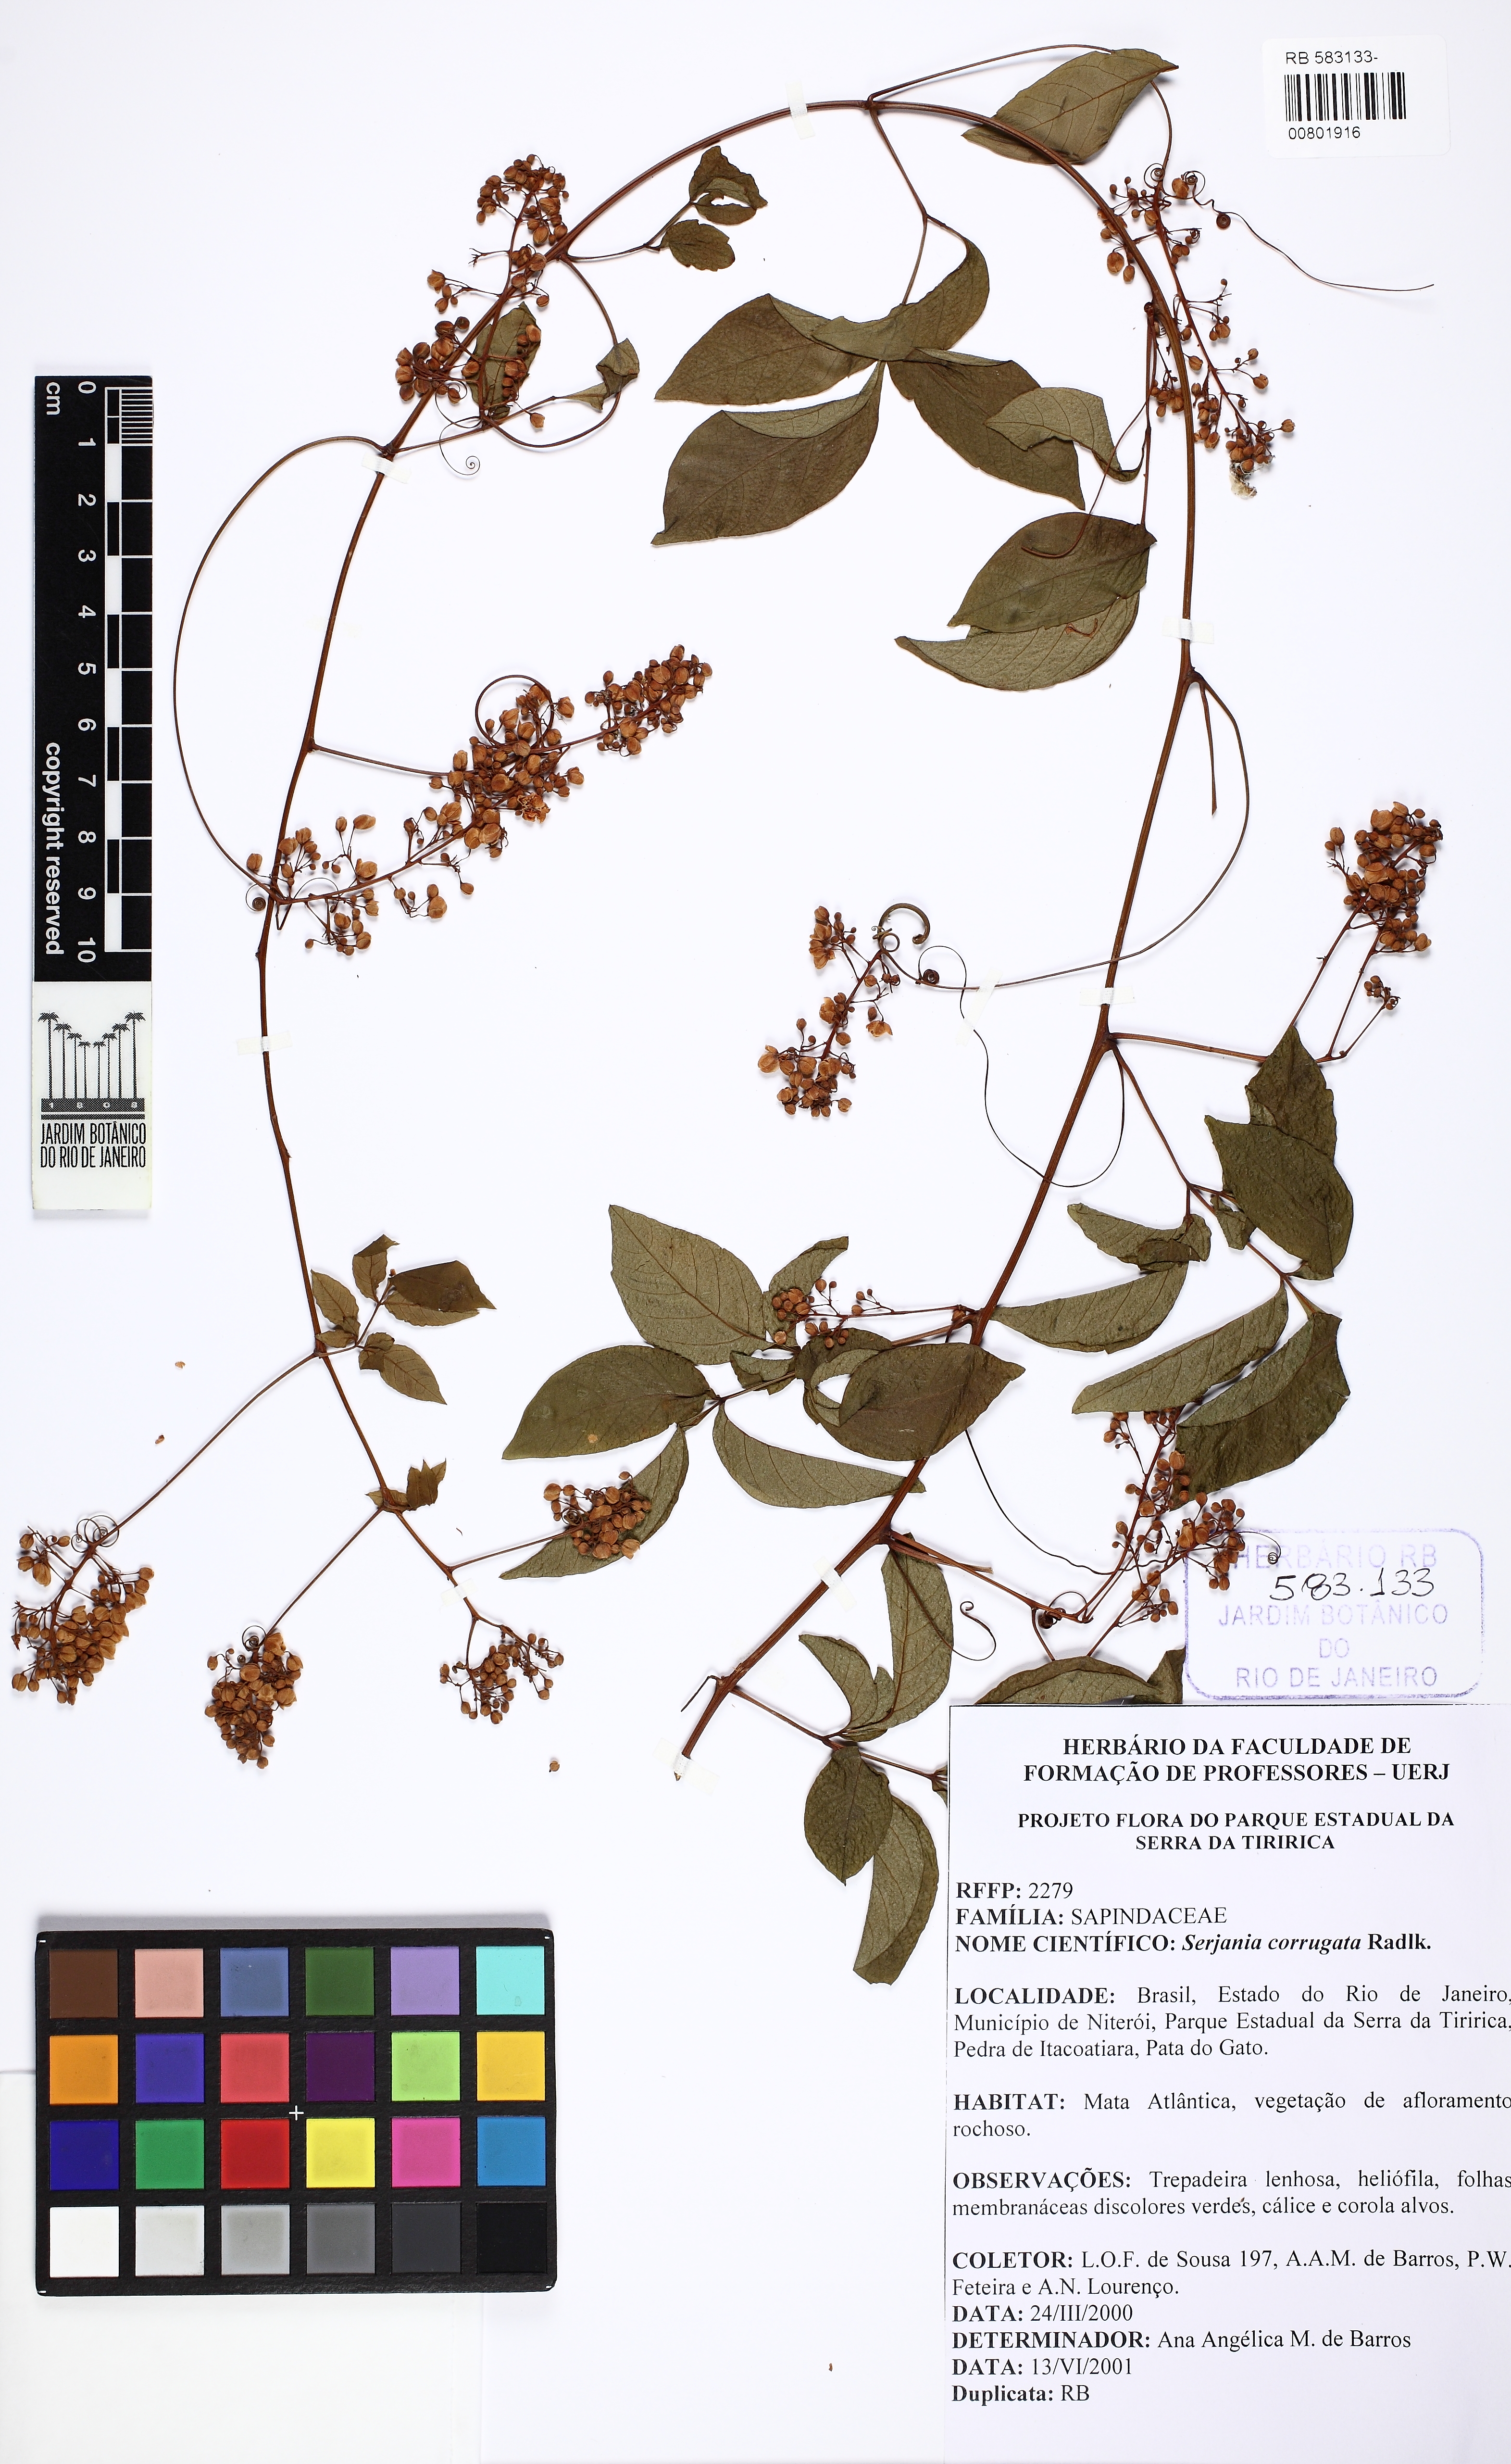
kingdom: Plantae
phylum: Tracheophyta
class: Magnoliopsida
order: Sapindales
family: Sapindaceae
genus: Serjania
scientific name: Serjania corrugata
